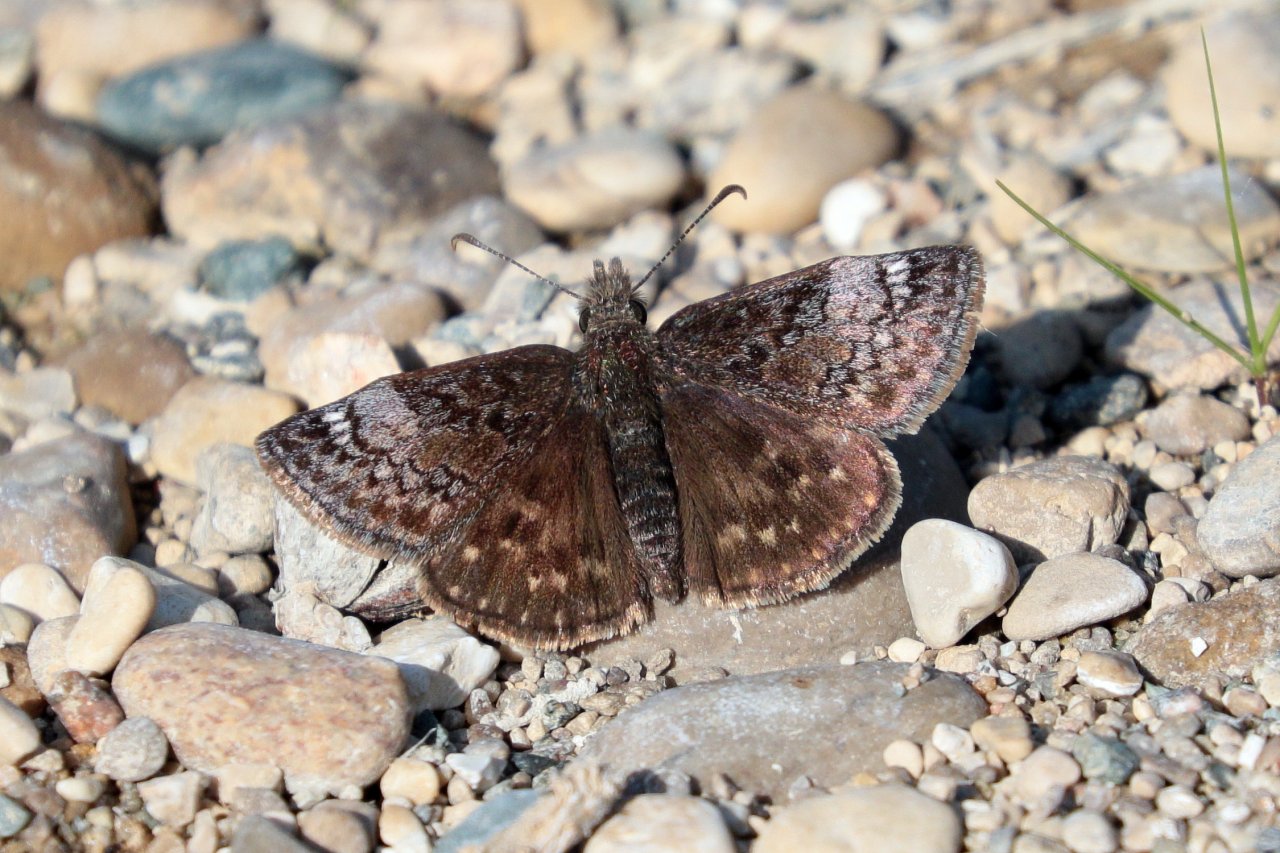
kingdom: Animalia
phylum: Arthropoda
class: Insecta
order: Lepidoptera
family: Hesperiidae
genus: Erynnis
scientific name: Erynnis icelus
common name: Dreamy Duskywing
